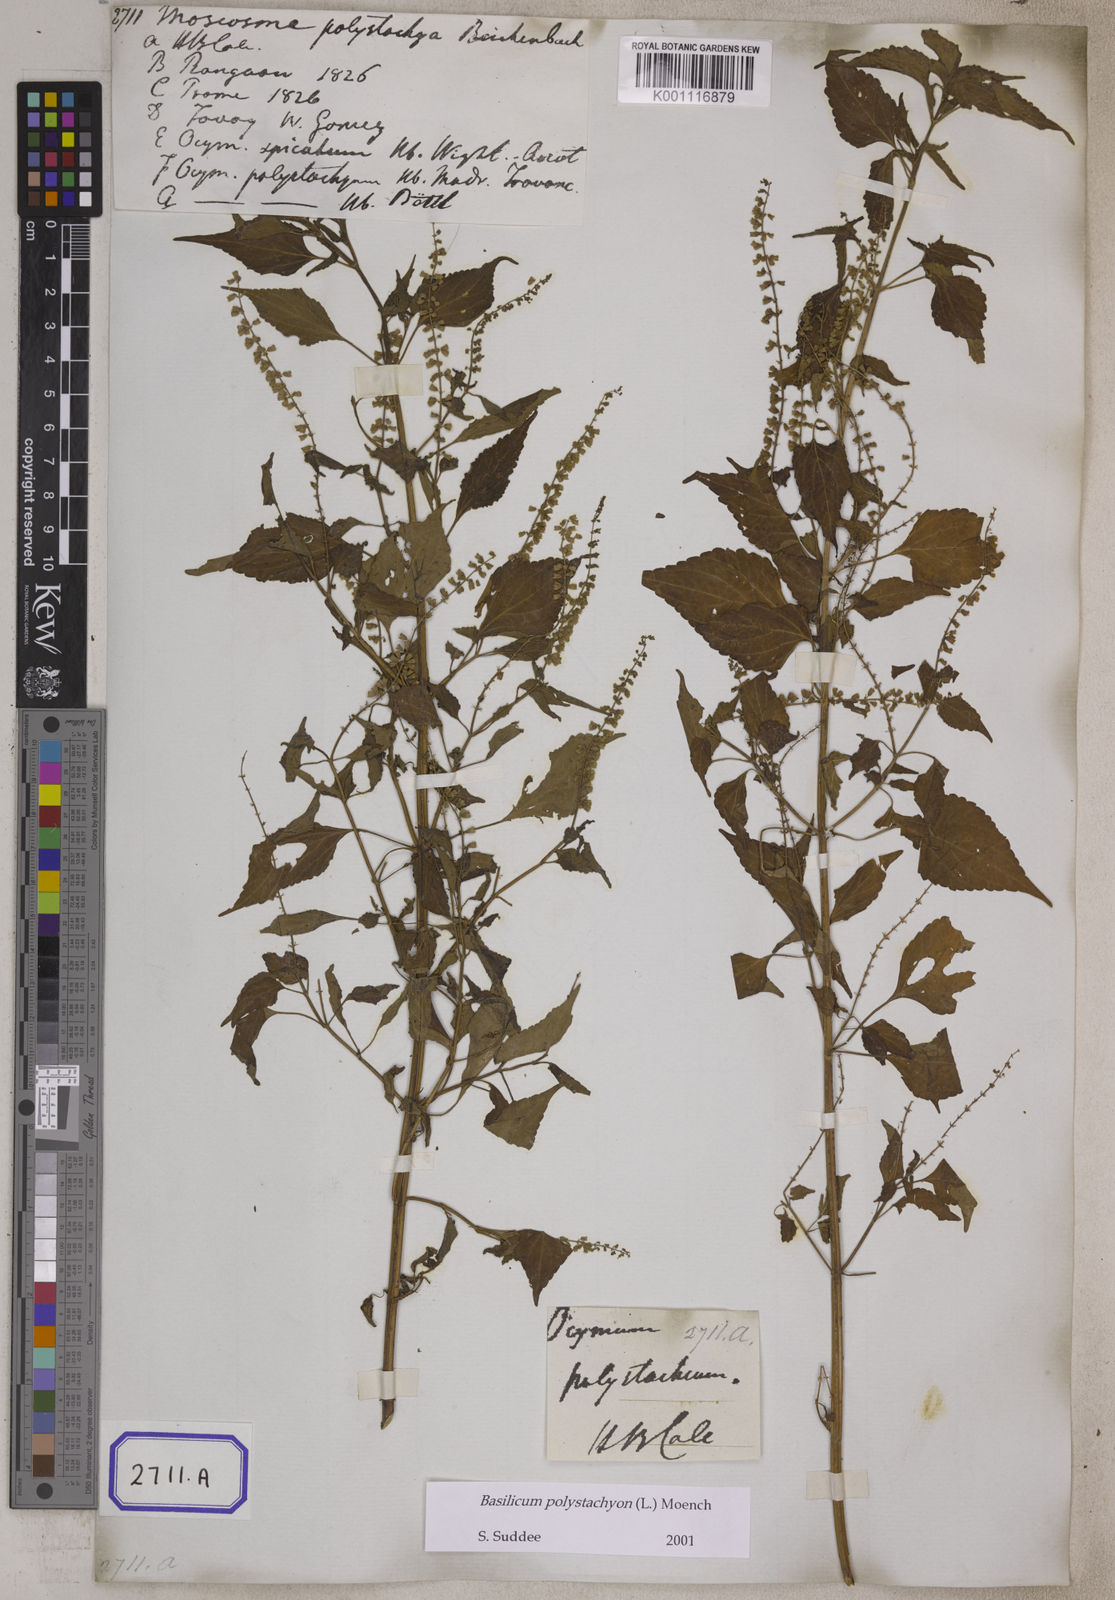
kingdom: Plantae
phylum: Tracheophyta
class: Magnoliopsida
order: Lamiales
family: Lamiaceae
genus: Basilicum
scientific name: Basilicum polystachyon
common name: Musk-basil
